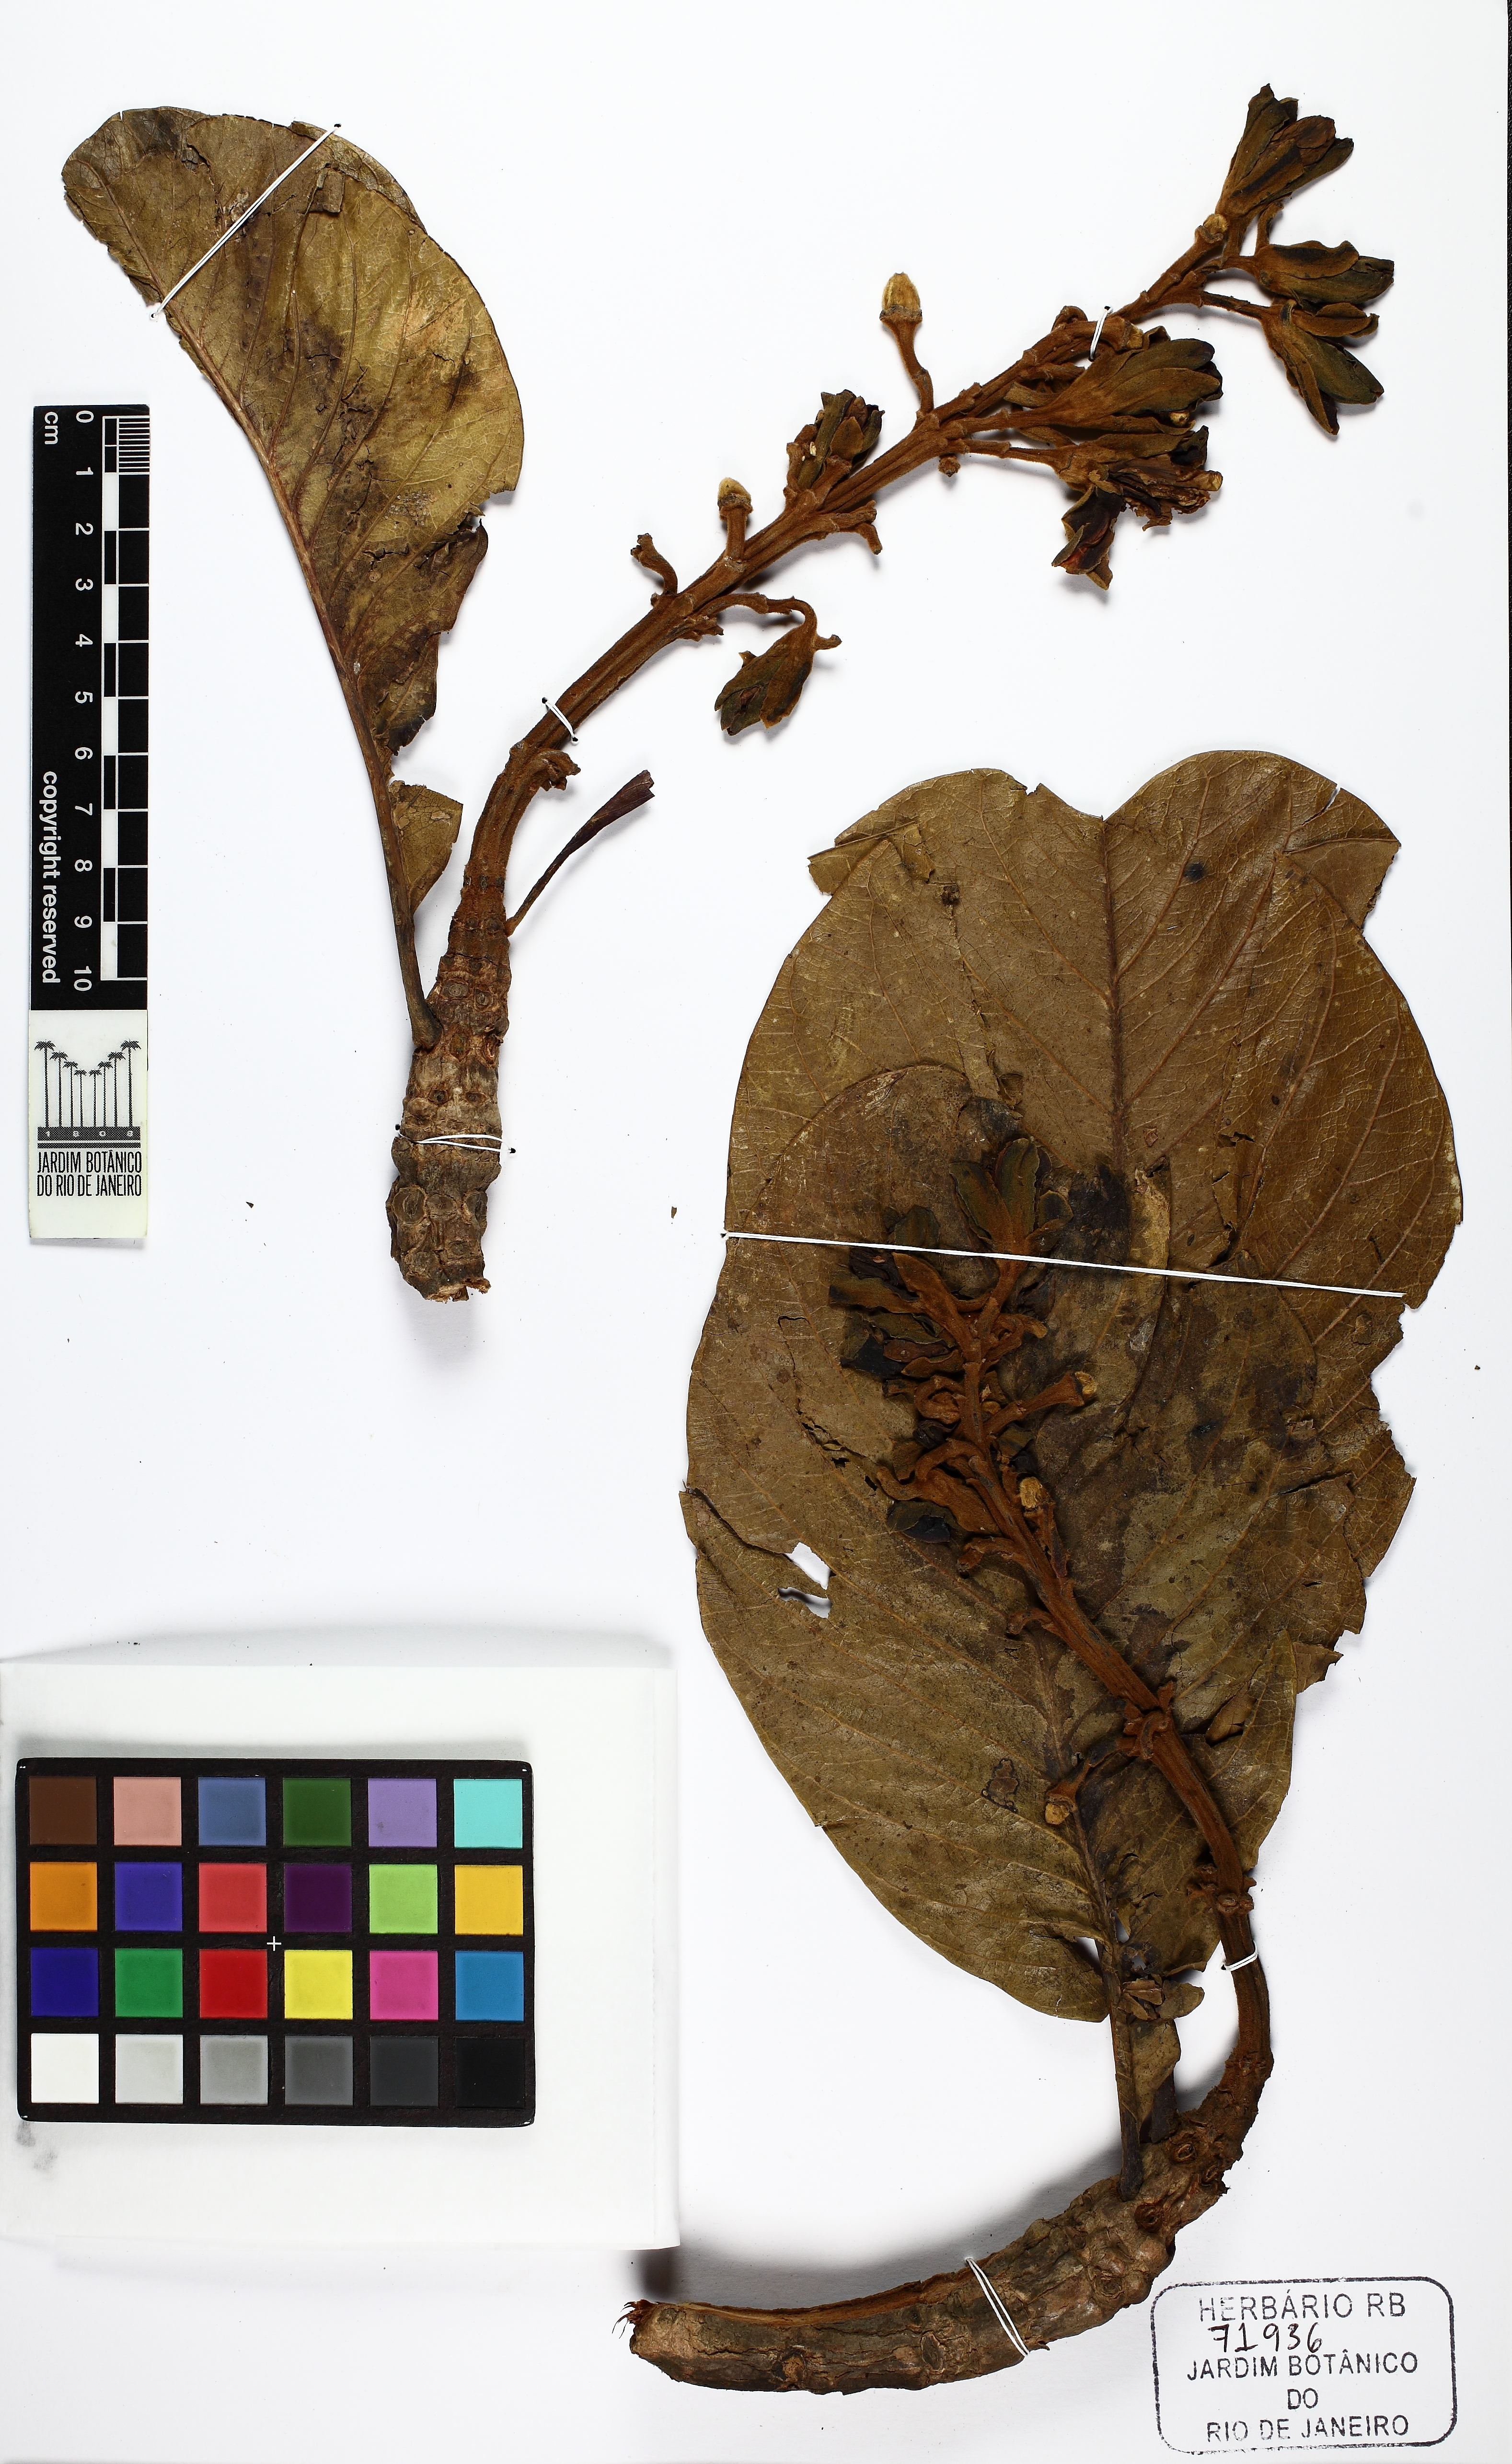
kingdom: Plantae
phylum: Tracheophyta
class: Magnoliopsida
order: Myrtales
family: Vochysiaceae
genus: Salvertia
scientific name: Salvertia convallariodora
